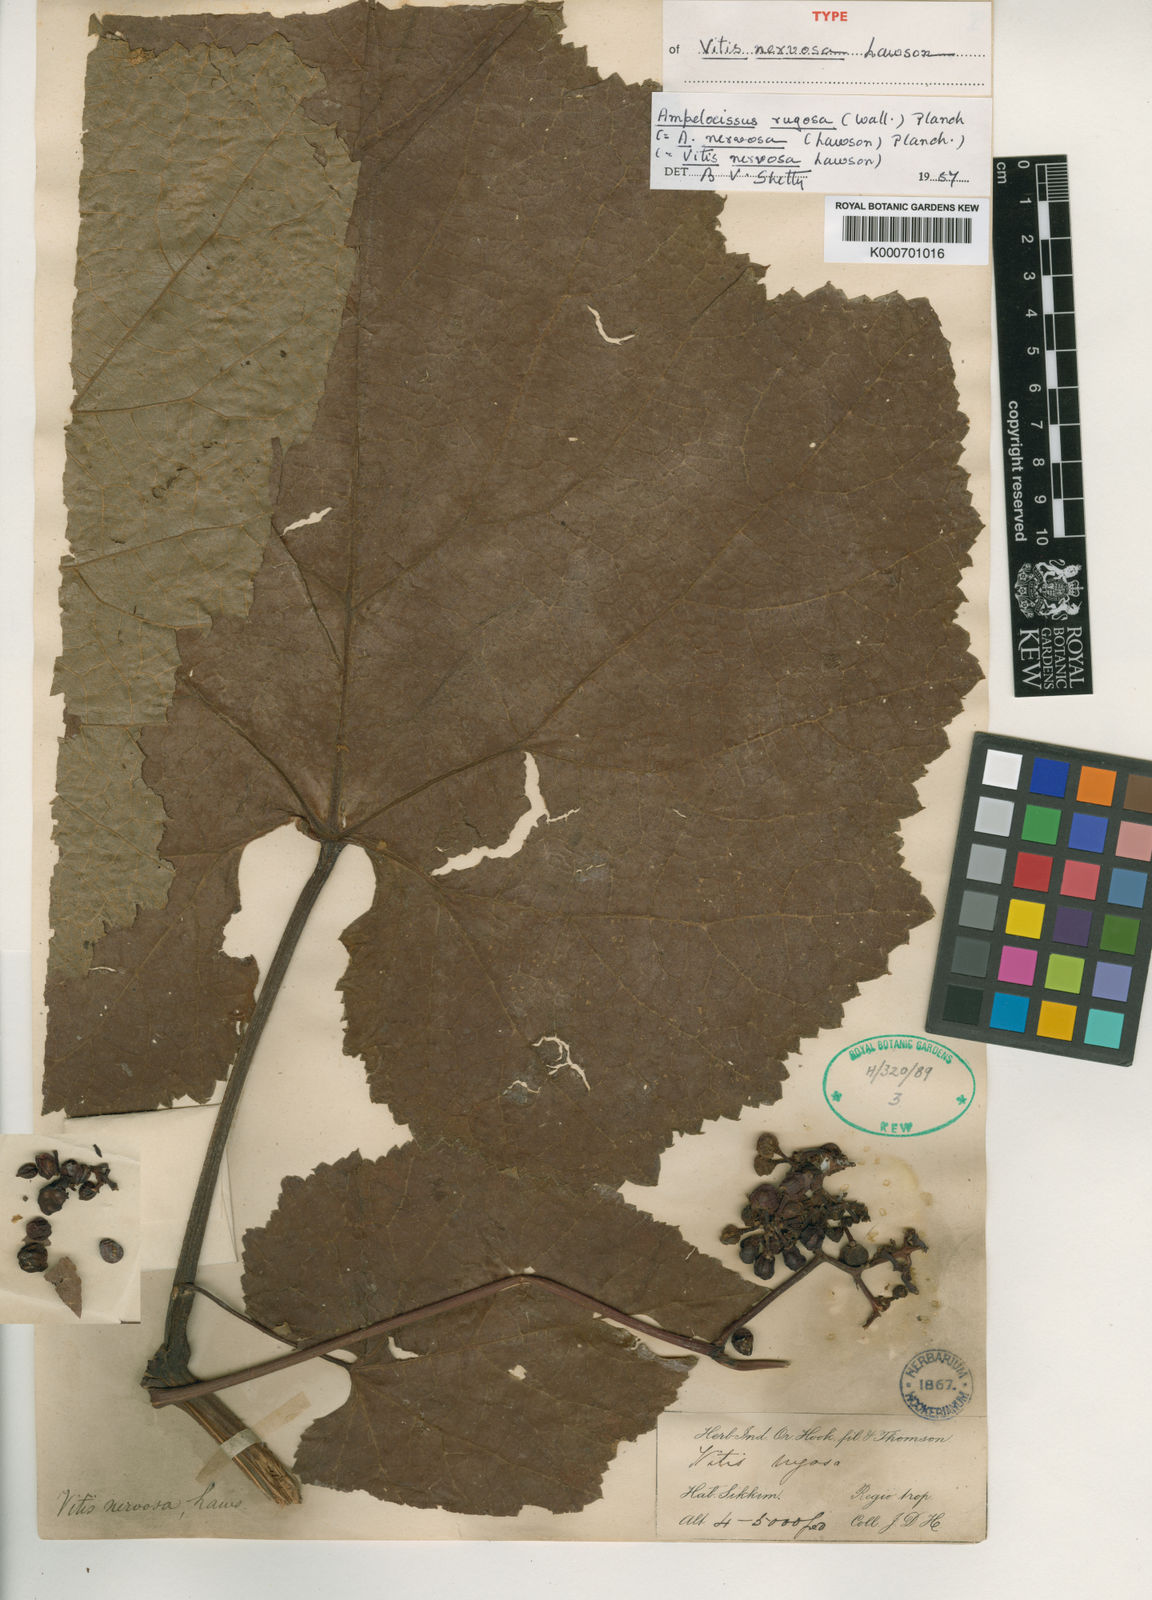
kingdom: Plantae
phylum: Tracheophyta
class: Magnoliopsida
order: Vitales
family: Vitaceae
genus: Ampelocissus
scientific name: Ampelocissus rugosa
